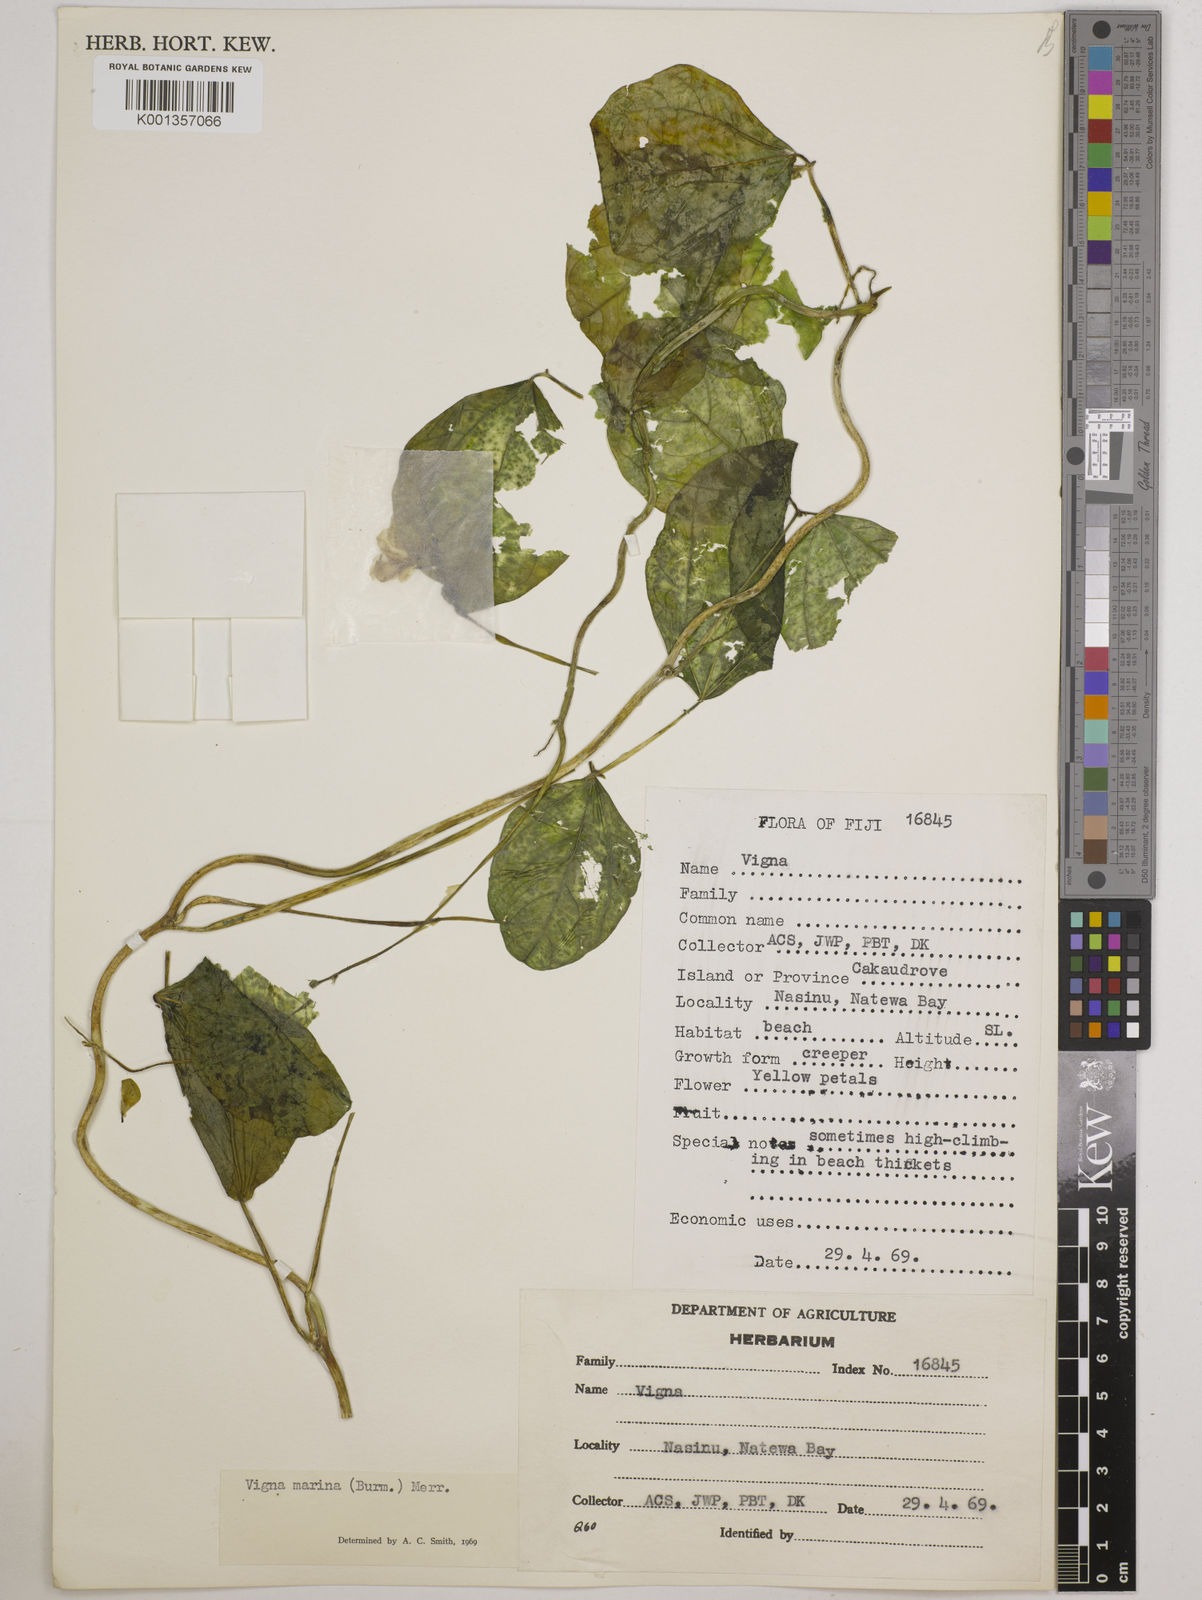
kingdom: Plantae
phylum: Tracheophyta
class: Magnoliopsida
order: Fabales
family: Fabaceae
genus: Vigna
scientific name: Vigna marina
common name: Dune-bean
